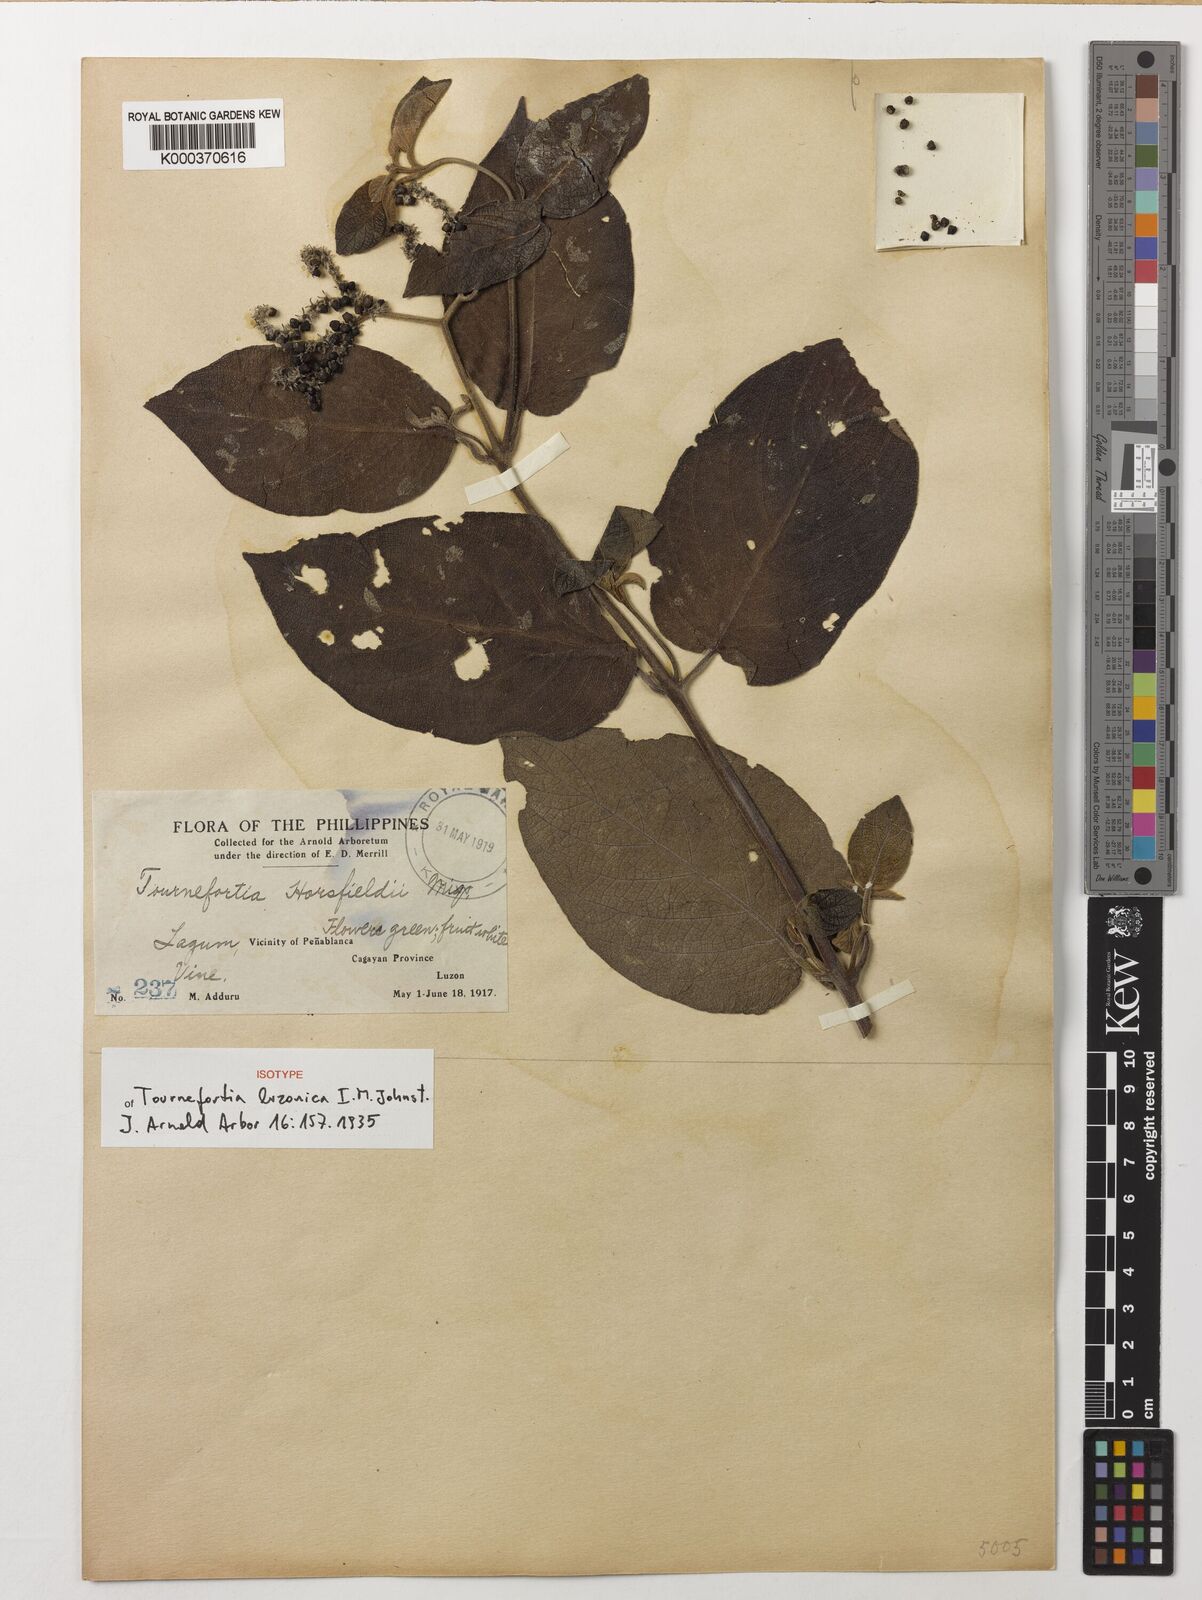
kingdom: Plantae
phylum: Tracheophyta
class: Magnoliopsida
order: Boraginales
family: Heliotropiaceae
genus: Heliotropium
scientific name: Heliotropium luzonicum
